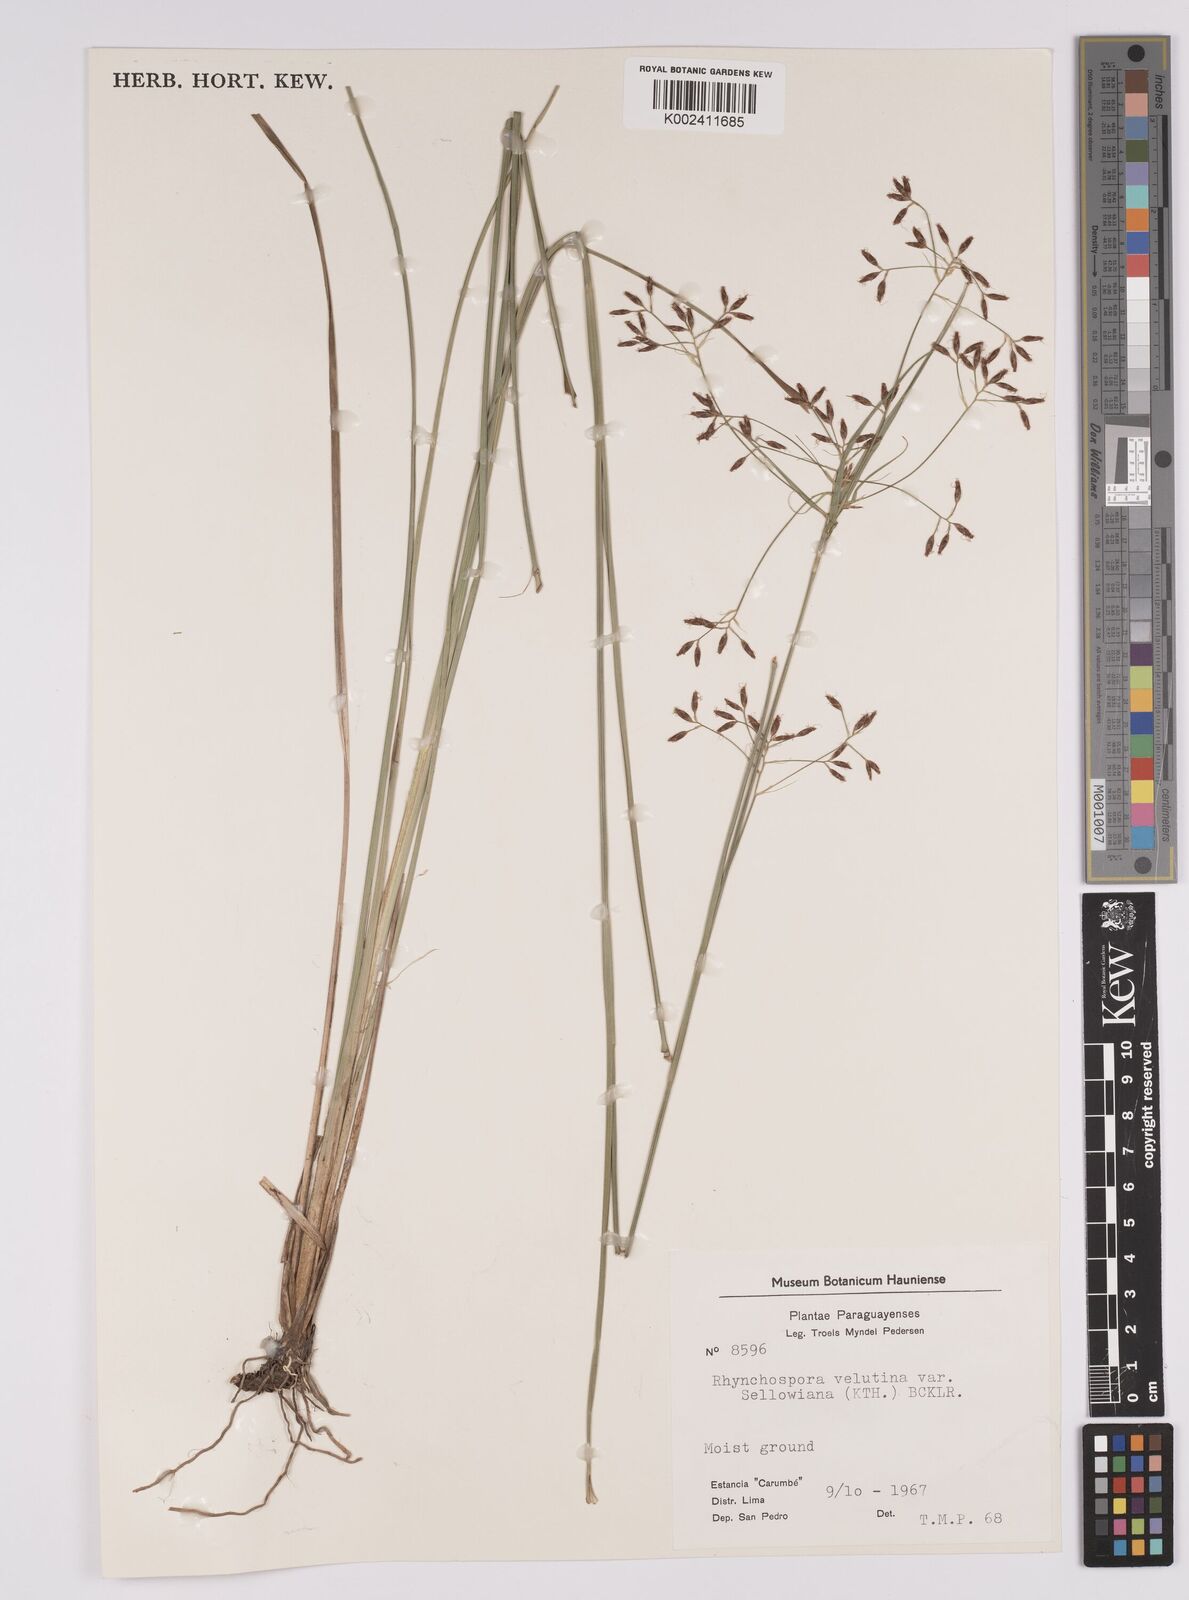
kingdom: Plantae
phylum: Tracheophyta
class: Liliopsida
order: Poales
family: Cyperaceae
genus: Rhynchospora
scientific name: Rhynchospora velutina
